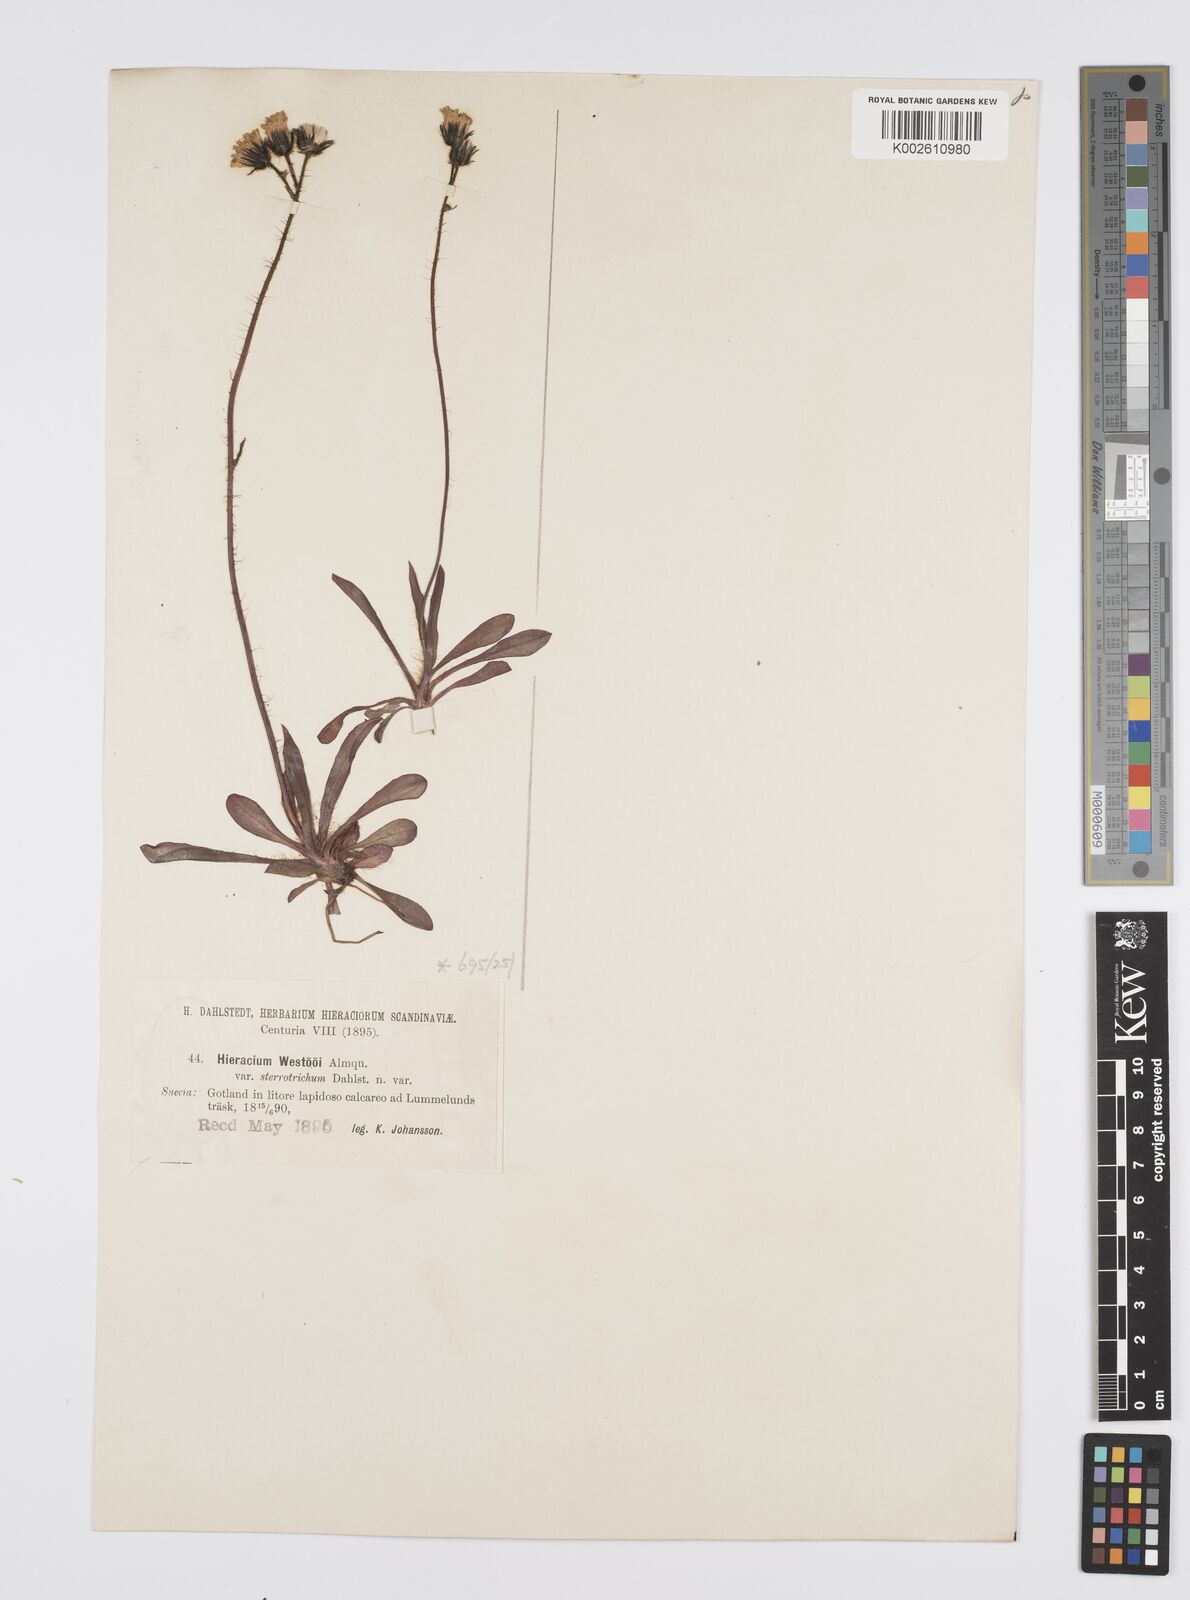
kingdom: Plantae
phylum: Tracheophyta
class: Magnoliopsida
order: Asterales
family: Asteraceae
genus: Pilosella
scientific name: Pilosella piloselloides
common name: Glaucous king-devil
